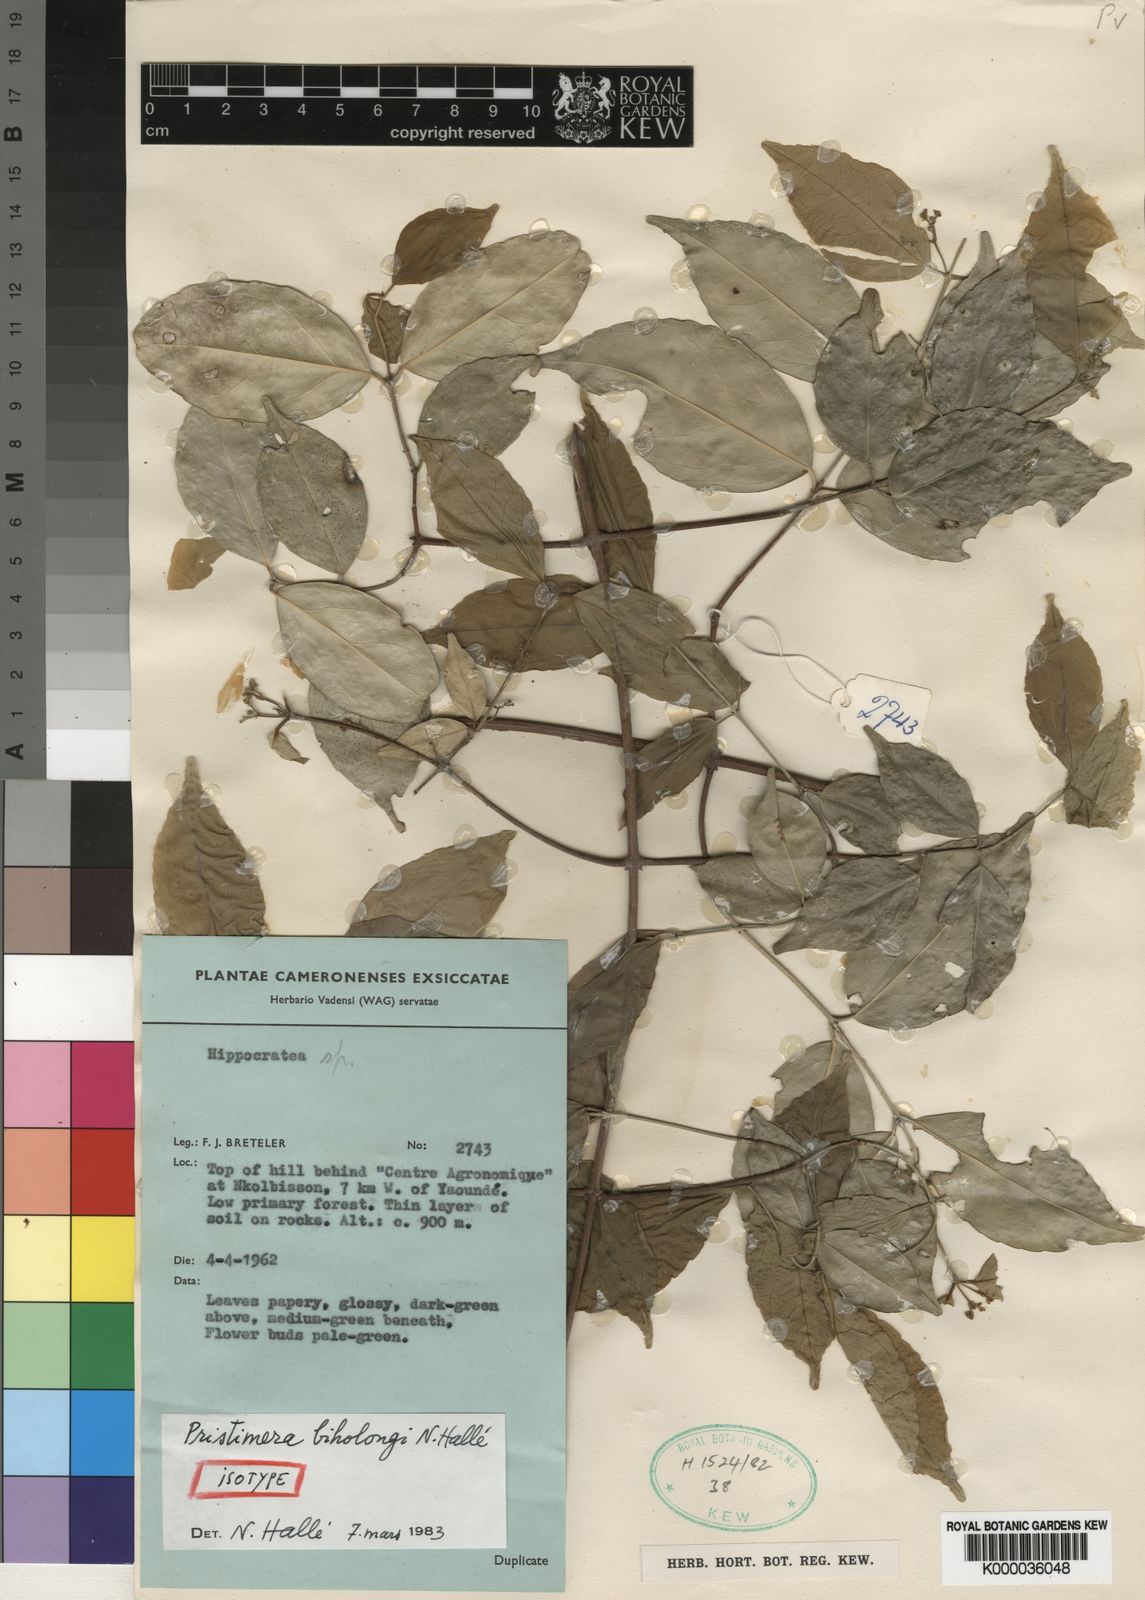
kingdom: Plantae
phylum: Tracheophyta
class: Magnoliopsida
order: Celastrales
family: Celastraceae
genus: Pristimera
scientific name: Pristimera
